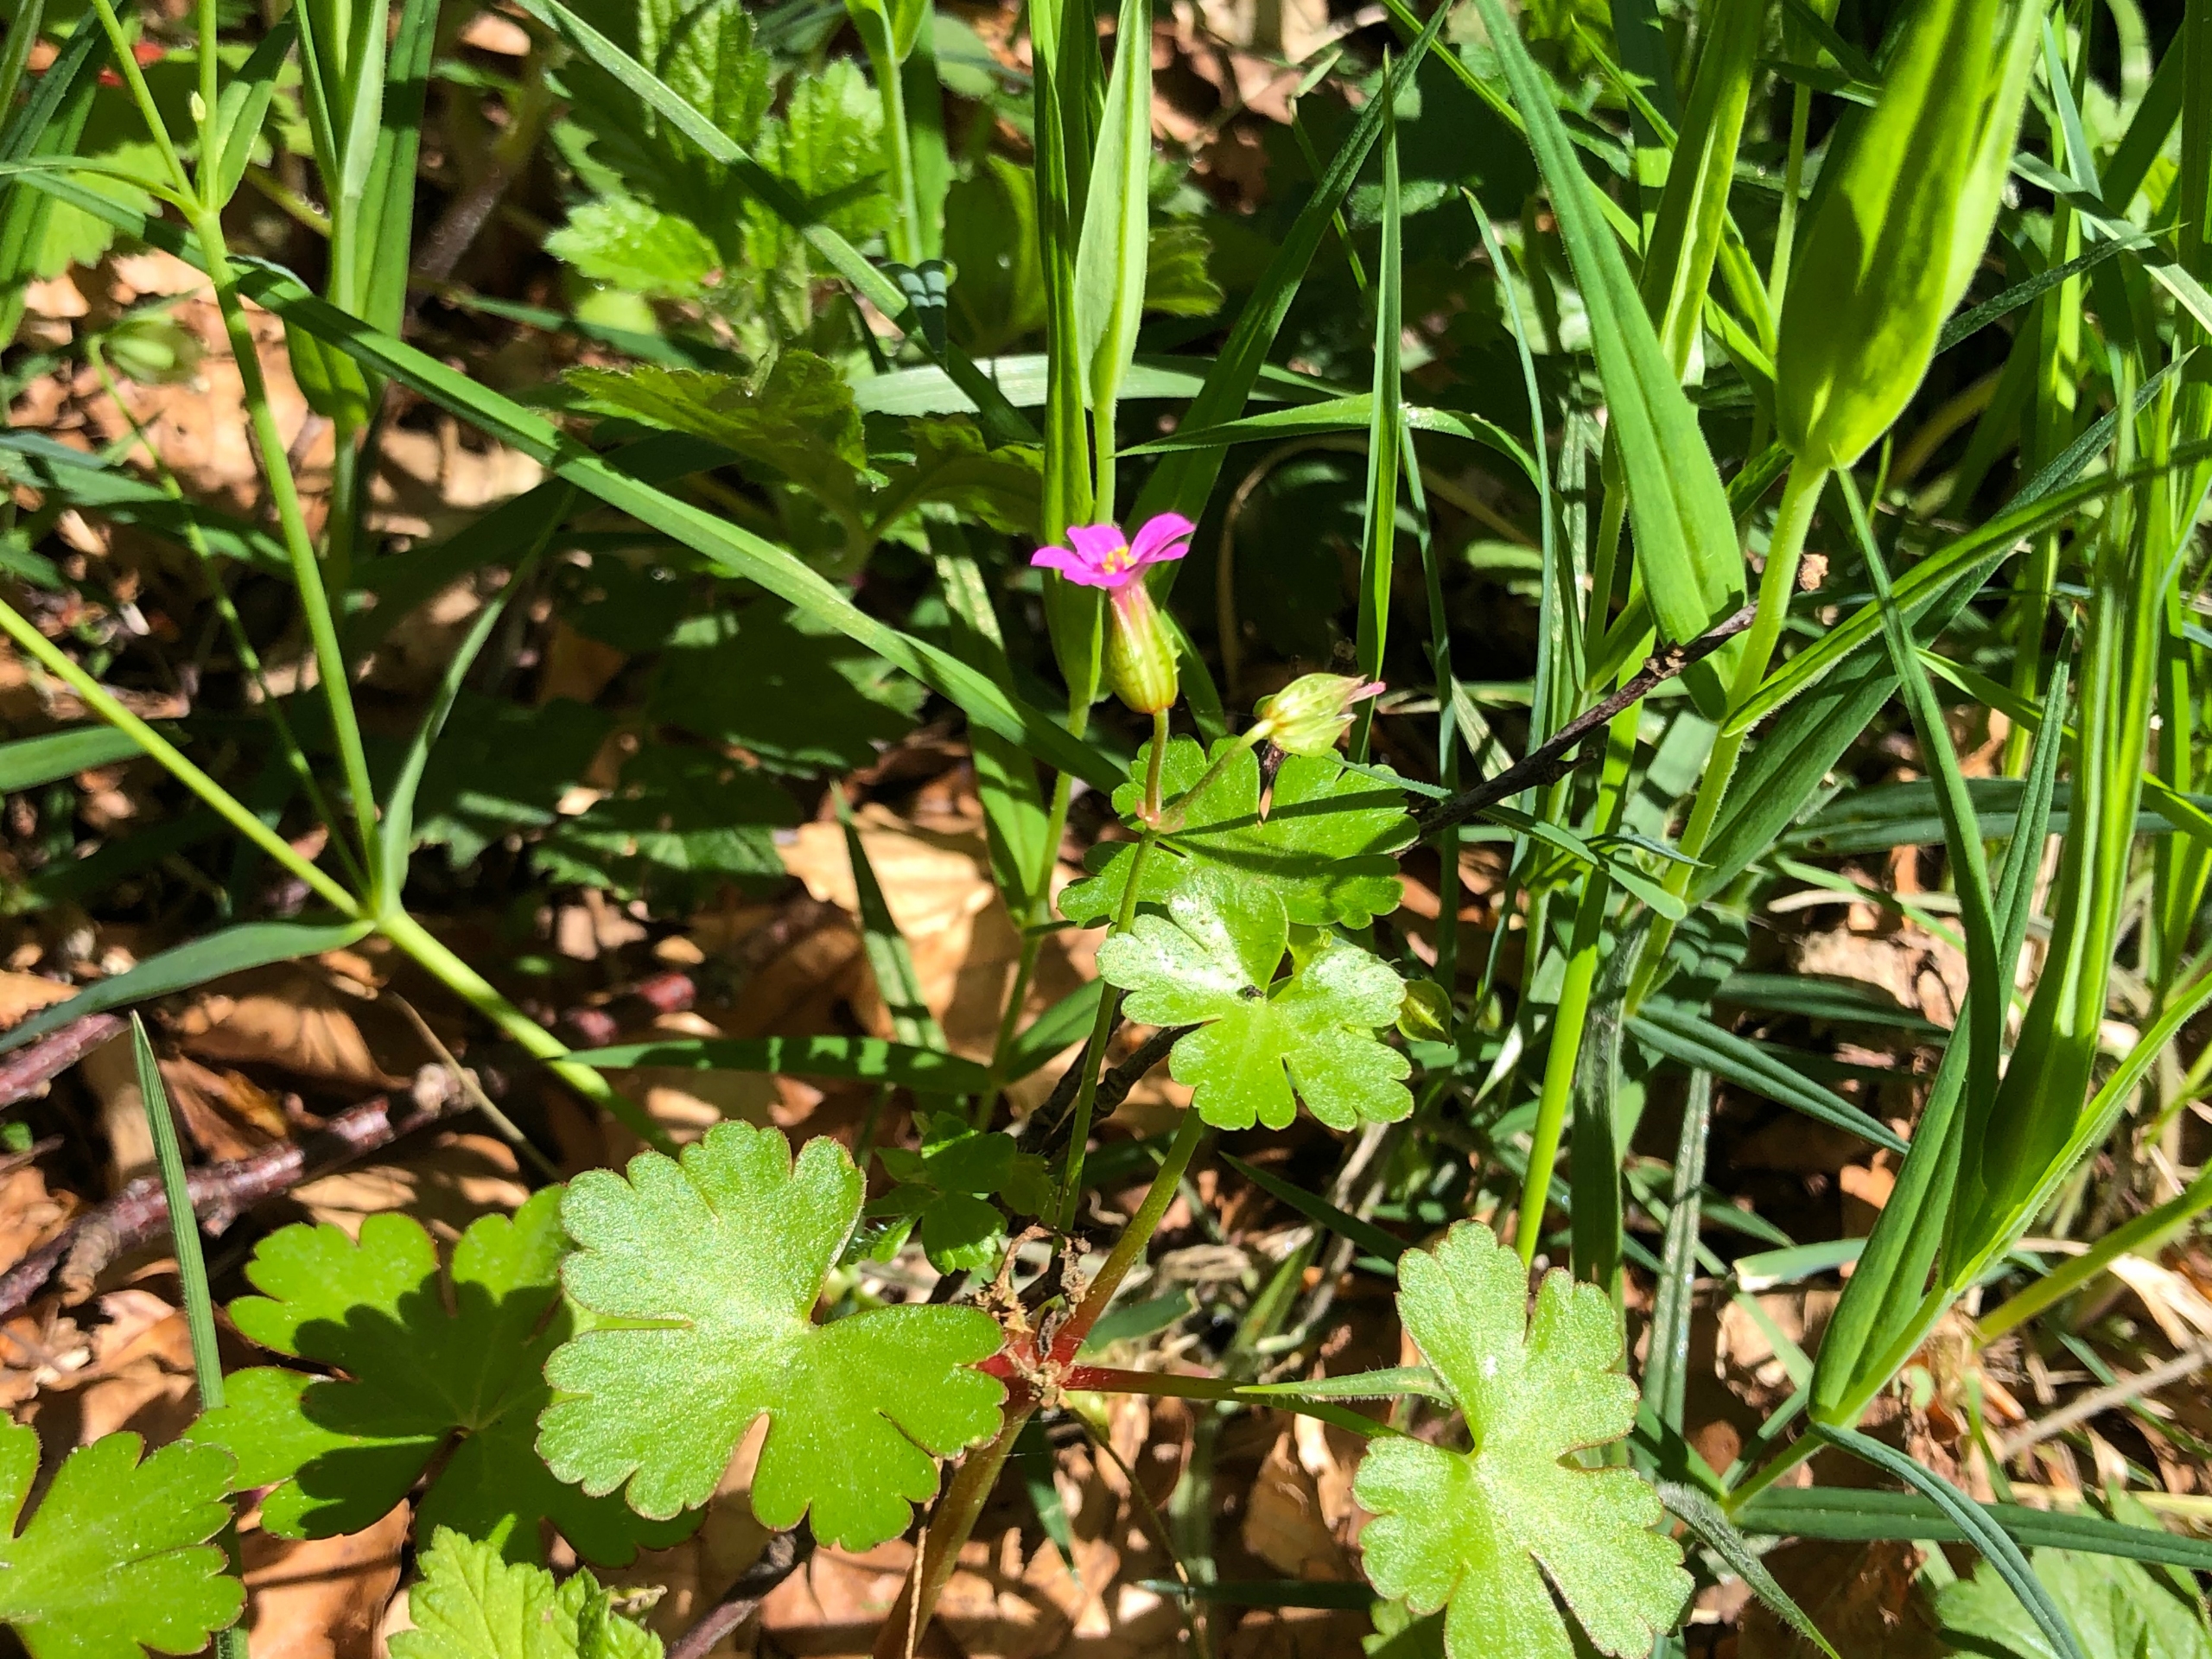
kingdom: Plantae
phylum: Tracheophyta
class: Magnoliopsida
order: Geraniales
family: Geraniaceae
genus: Geranium
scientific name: Geranium lucidum
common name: Skinnende storkenæb
